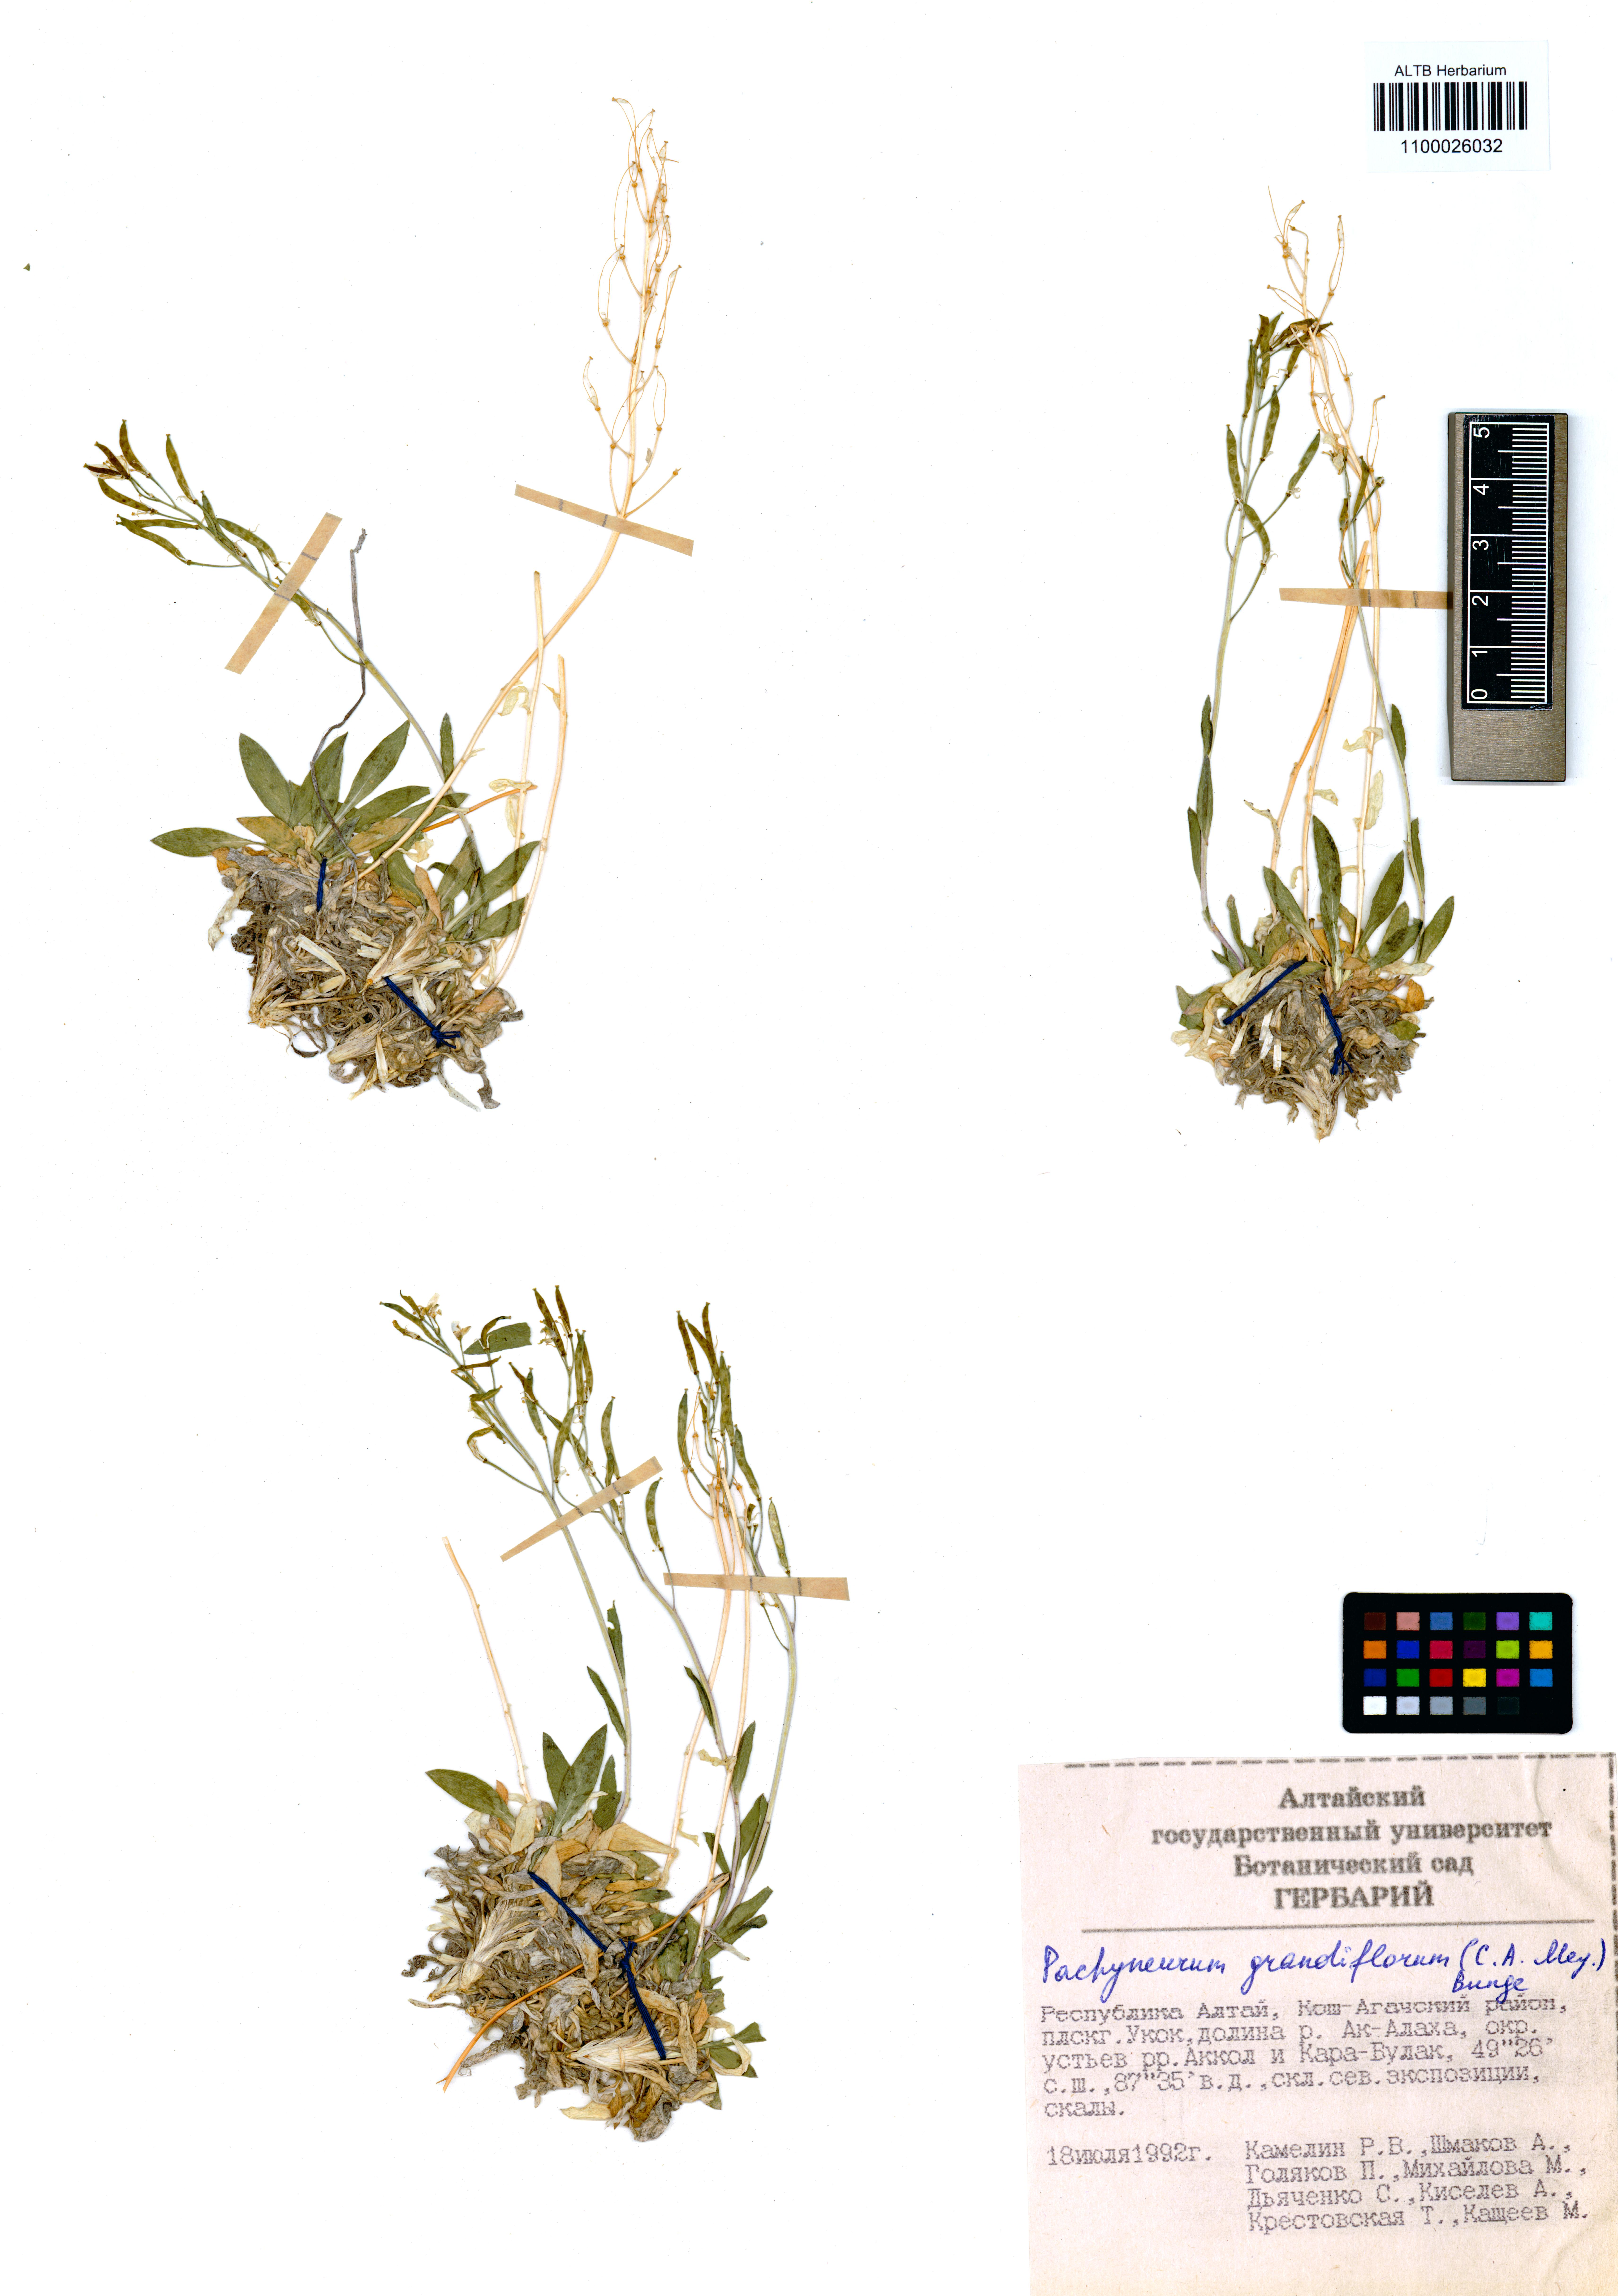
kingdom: Plantae
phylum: Tracheophyta
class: Magnoliopsida
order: Brassicales
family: Brassicaceae
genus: Pachyneurum
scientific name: Pachyneurum grandiflorum
